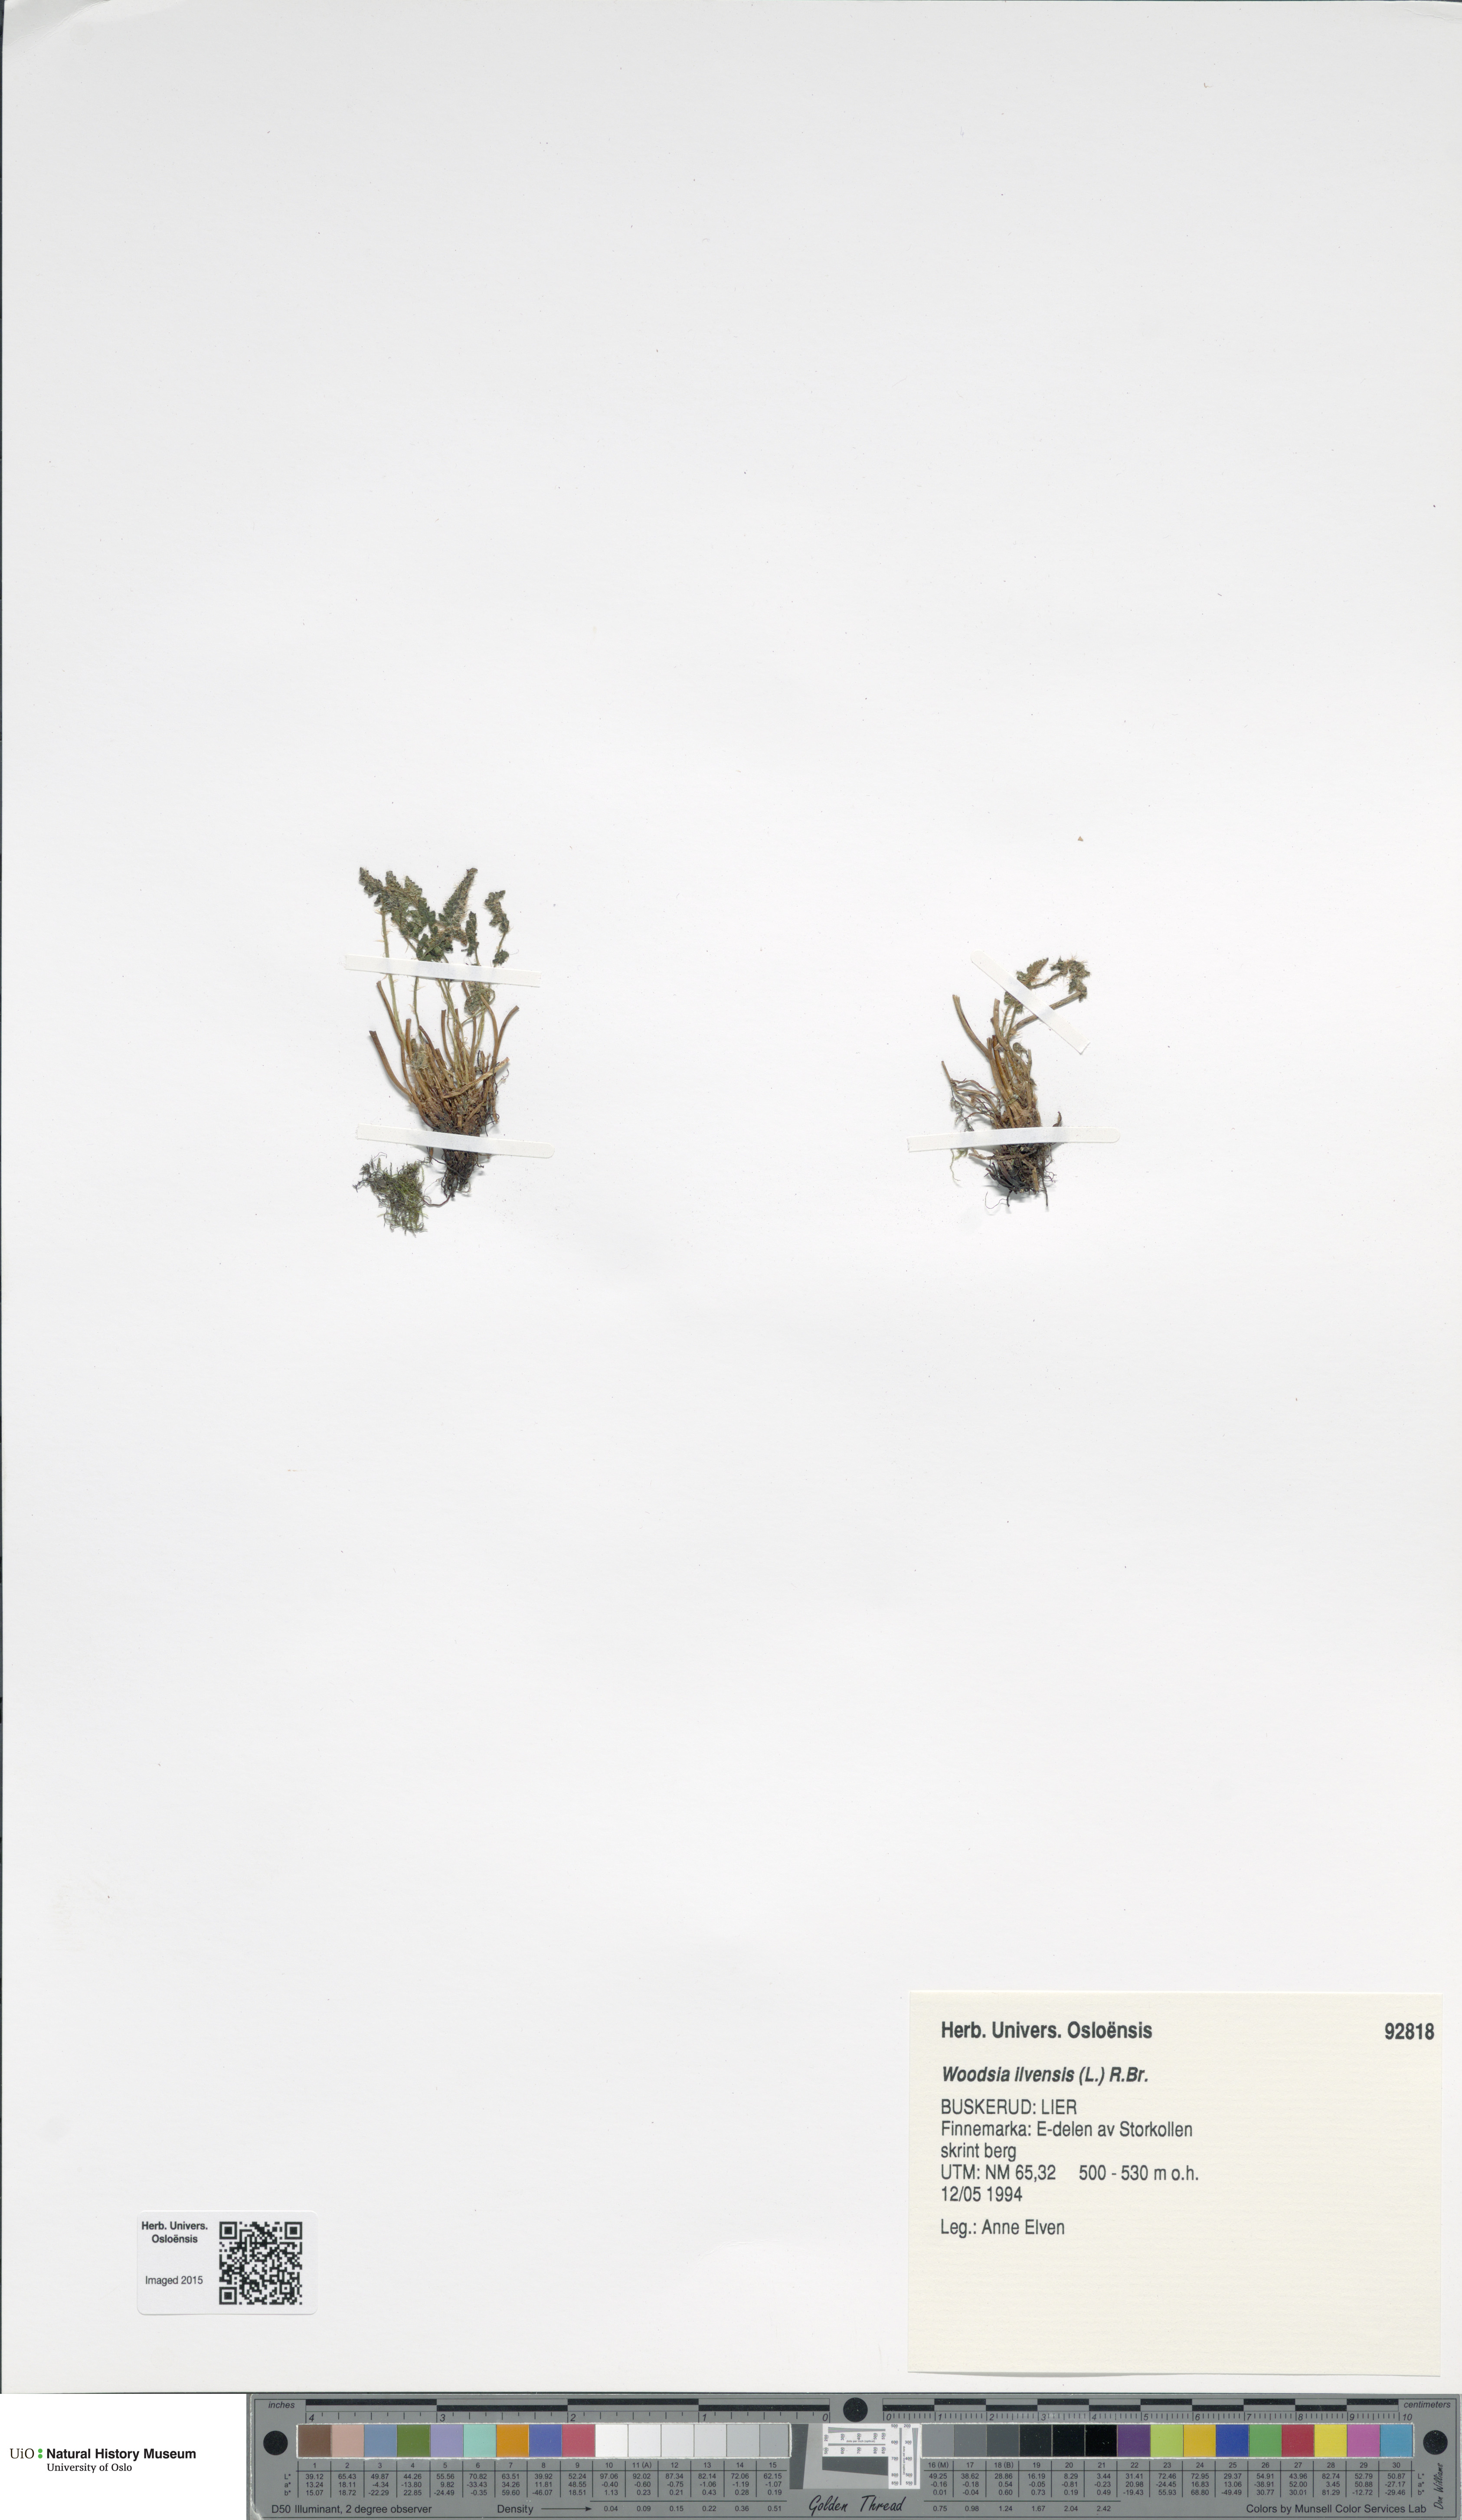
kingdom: Plantae
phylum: Tracheophyta
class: Polypodiopsida
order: Polypodiales
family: Woodsiaceae
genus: Woodsia
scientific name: Woodsia ilvensis
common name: Fragrant woodsia
